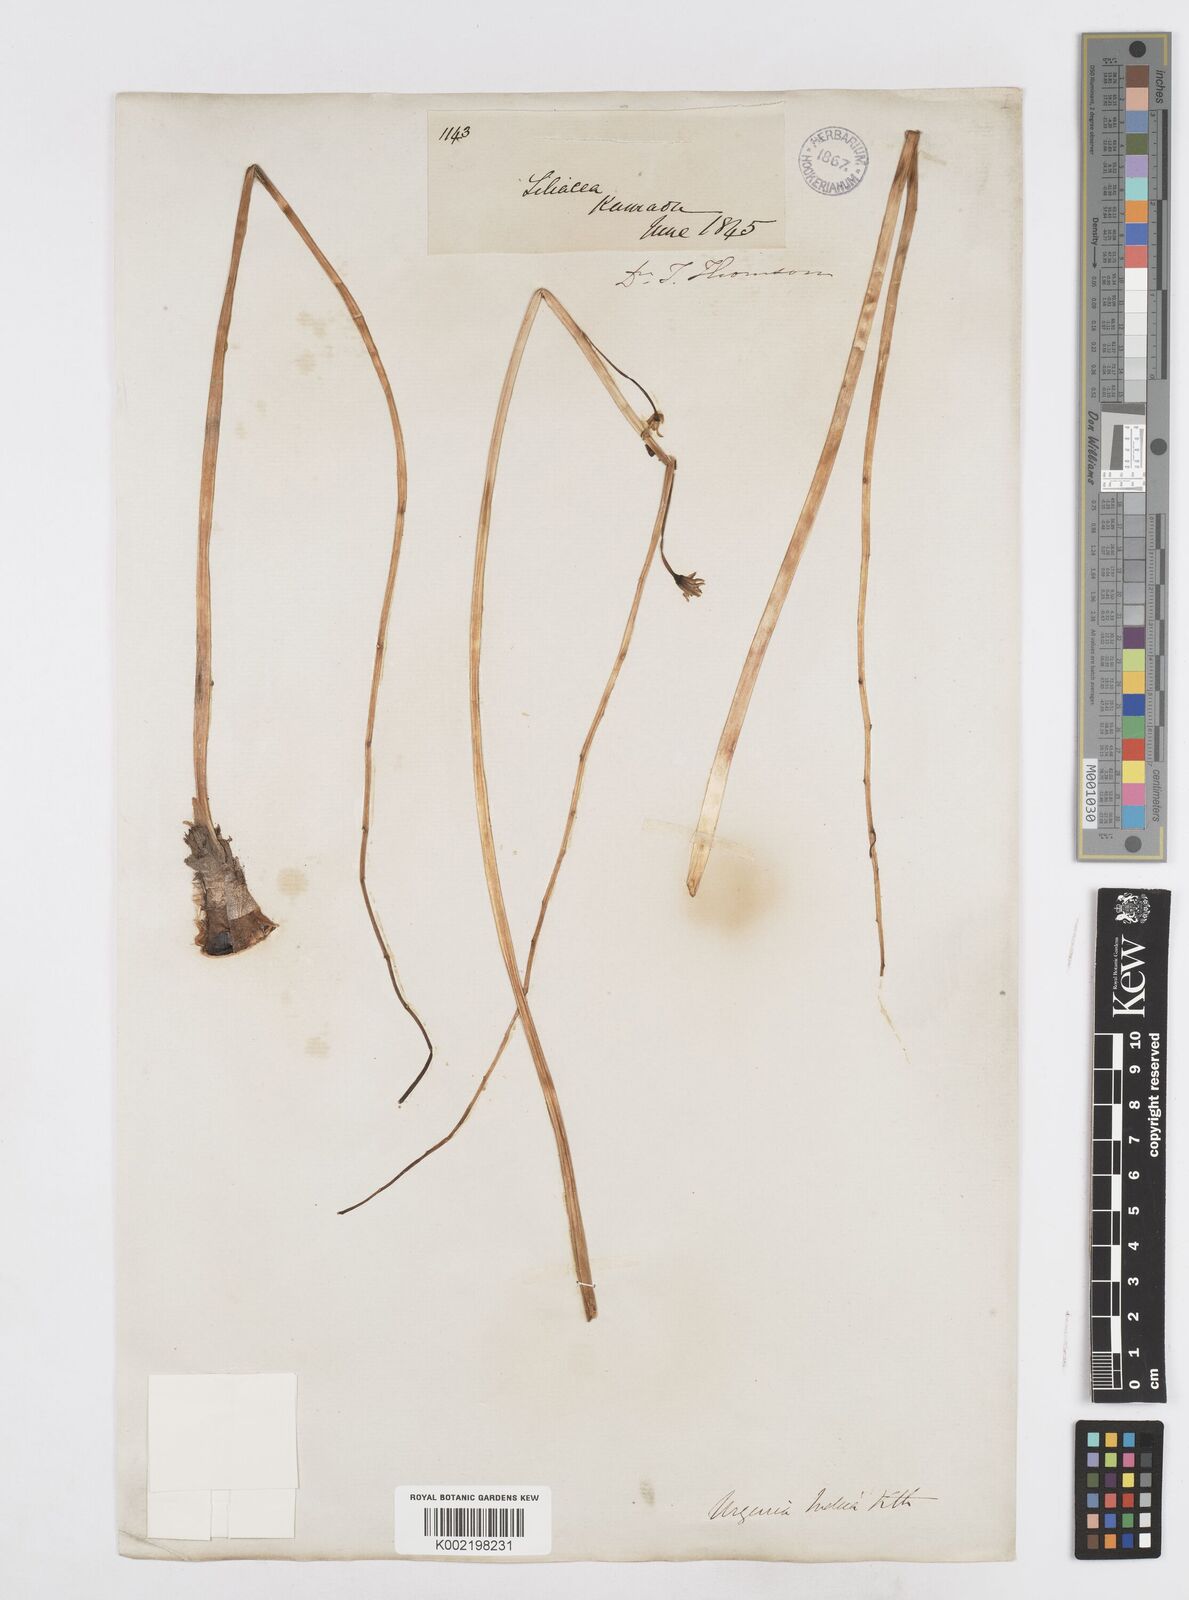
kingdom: Plantae
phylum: Tracheophyta
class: Liliopsida
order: Asparagales
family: Asparagaceae
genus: Drimia
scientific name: Drimia indica
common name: Indian-squill
